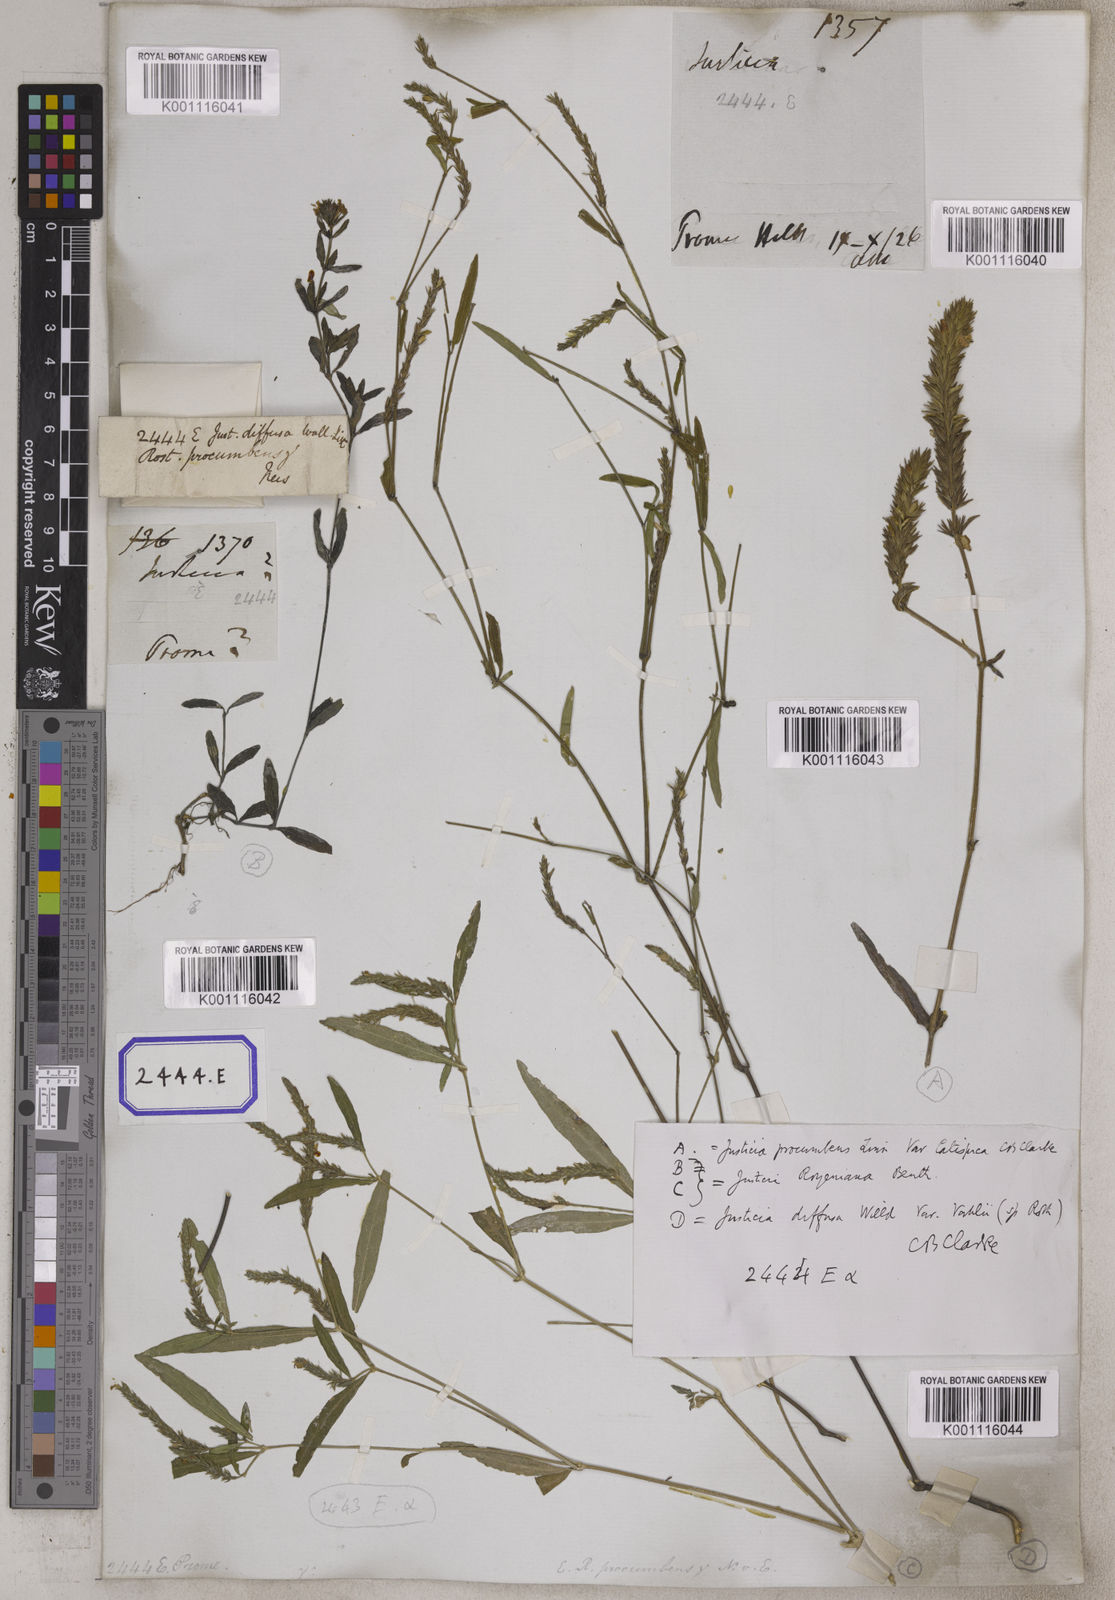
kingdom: Plantae
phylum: Tracheophyta
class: Magnoliopsida
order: Lamiales
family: Acanthaceae
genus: Justicia
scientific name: Justicia
